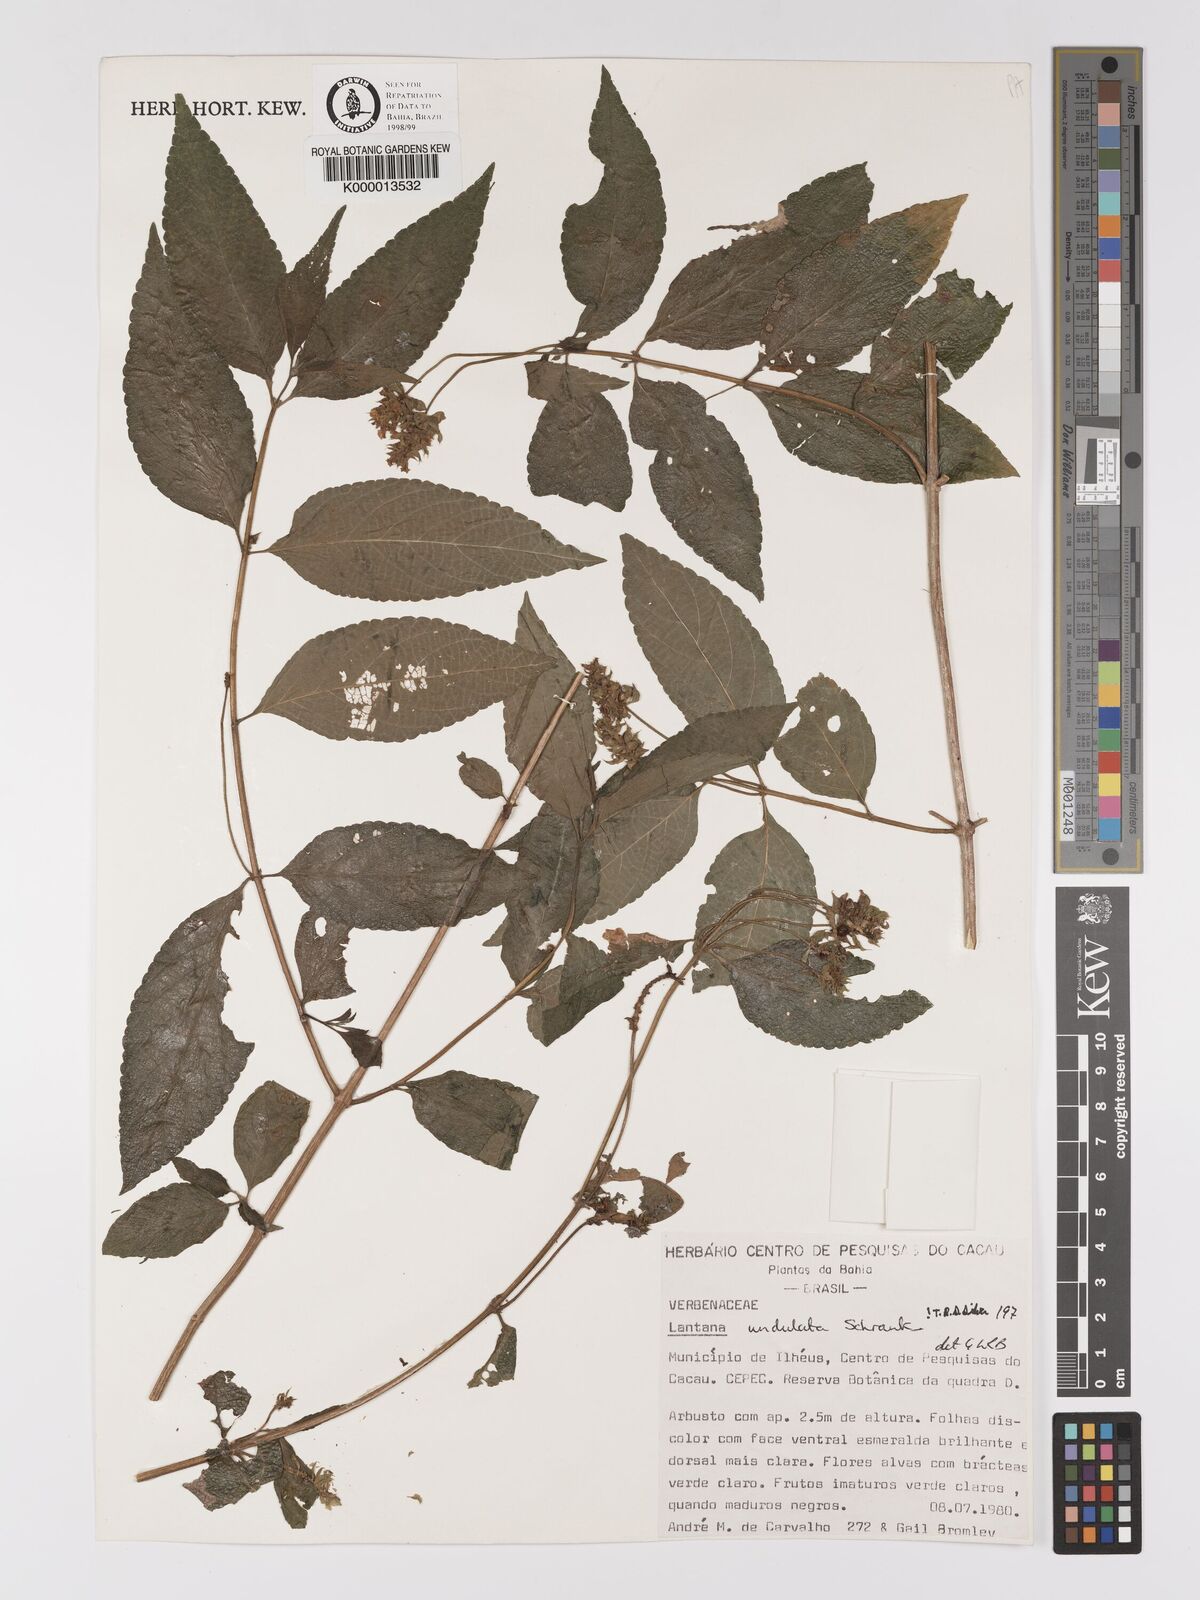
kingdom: Plantae
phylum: Tracheophyta
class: Magnoliopsida
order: Lamiales
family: Verbenaceae
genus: Lantana
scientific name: Lantana undulata
